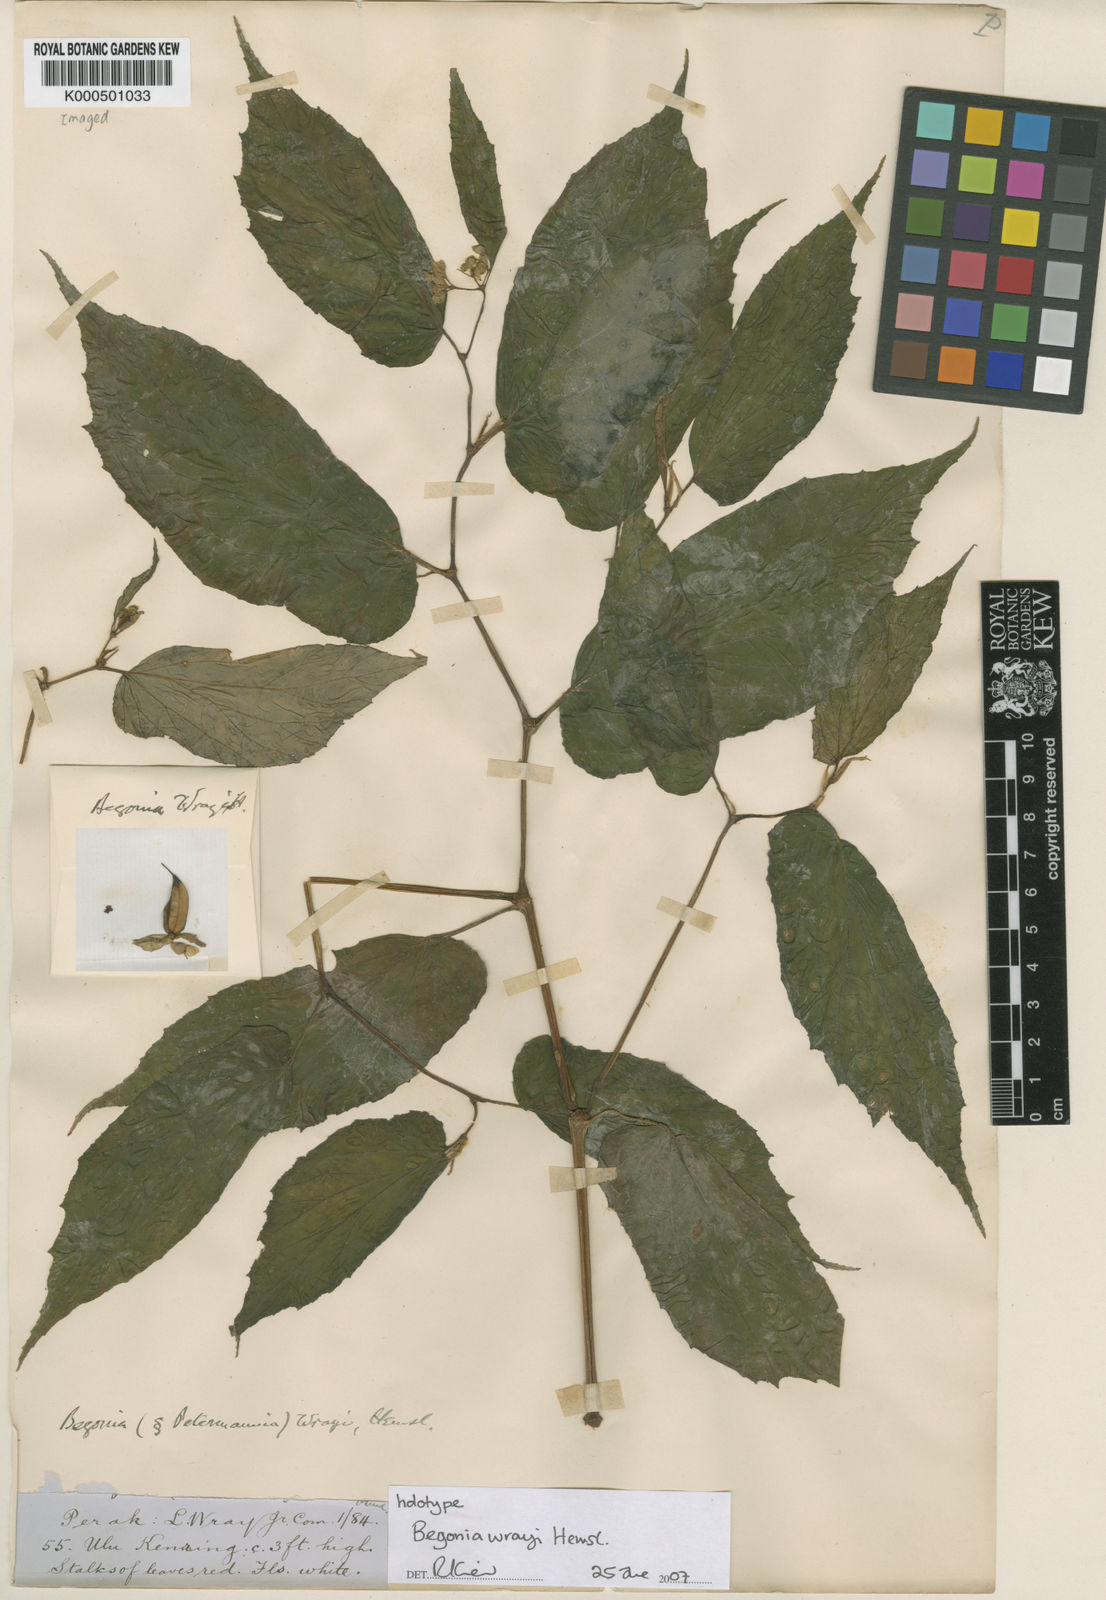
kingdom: Plantae
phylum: Tracheophyta
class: Magnoliopsida
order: Cucurbitales
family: Begoniaceae
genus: Begonia
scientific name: Begonia wrayi
